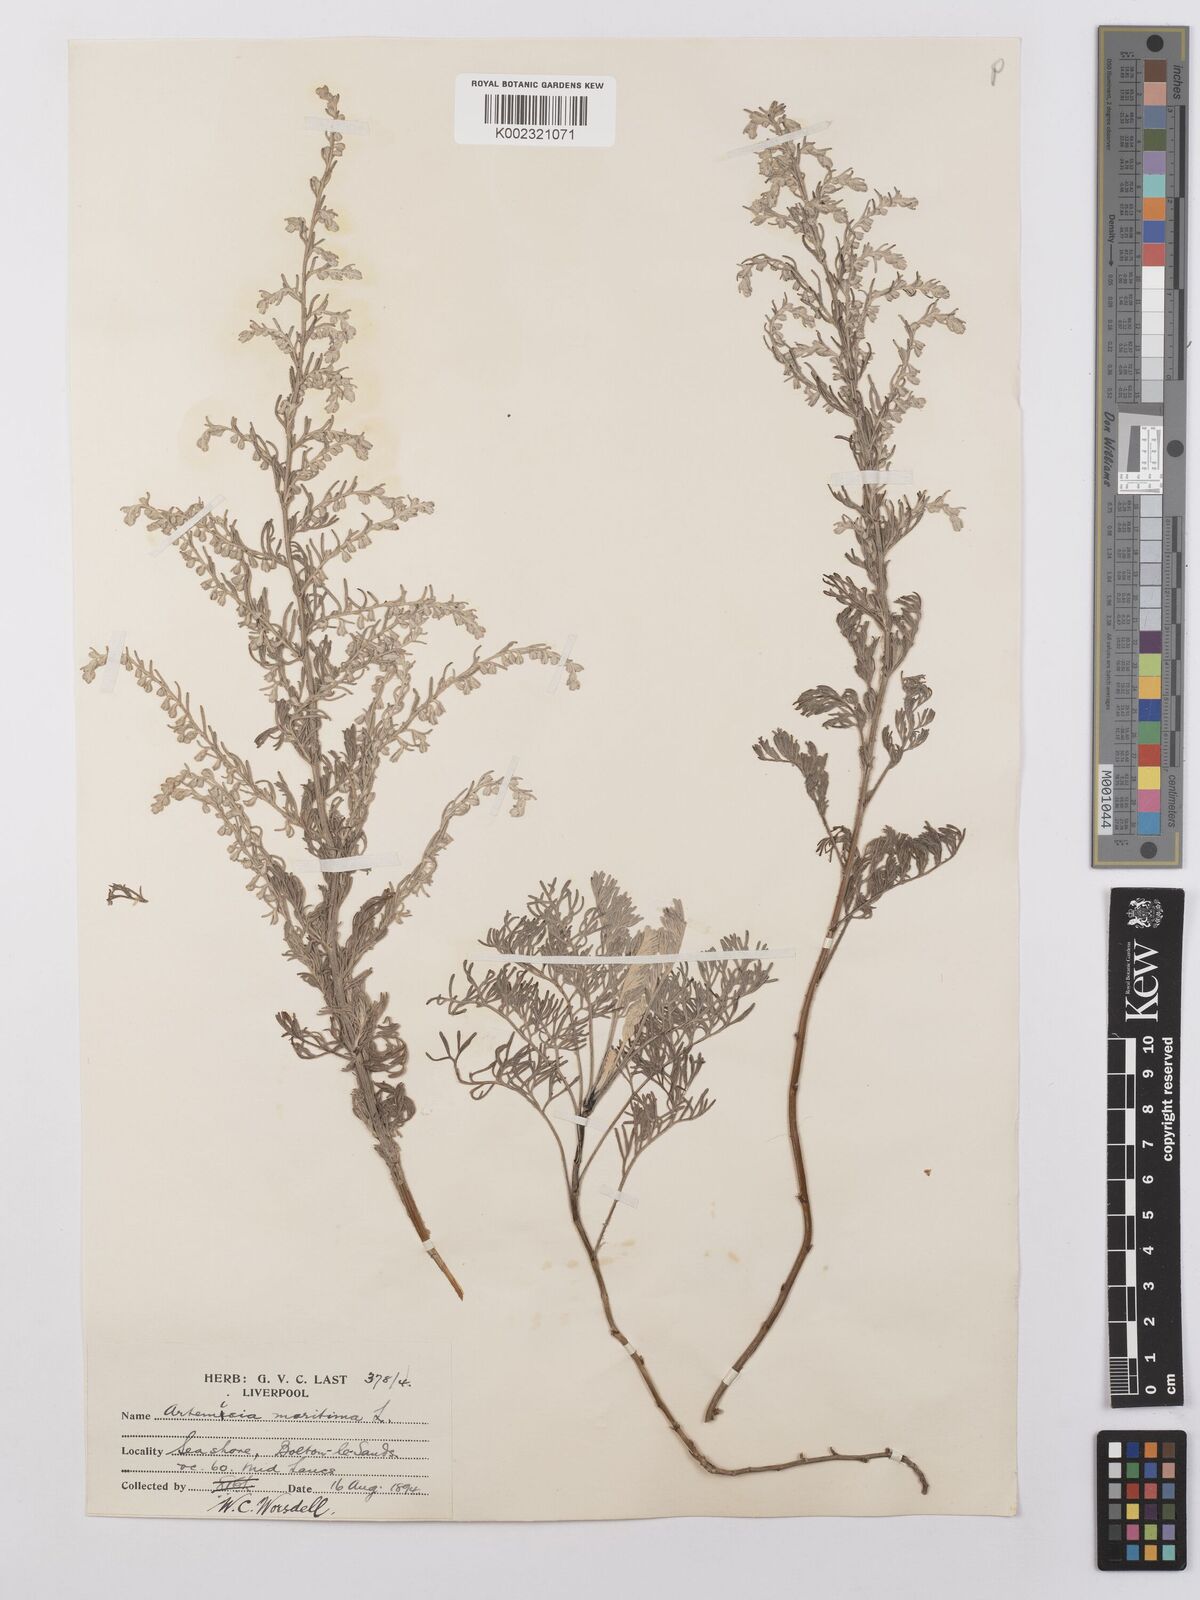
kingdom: Plantae
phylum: Tracheophyta
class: Magnoliopsida
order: Asterales
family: Asteraceae
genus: Artemisia
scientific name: Artemisia maritima
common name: Wormseed
